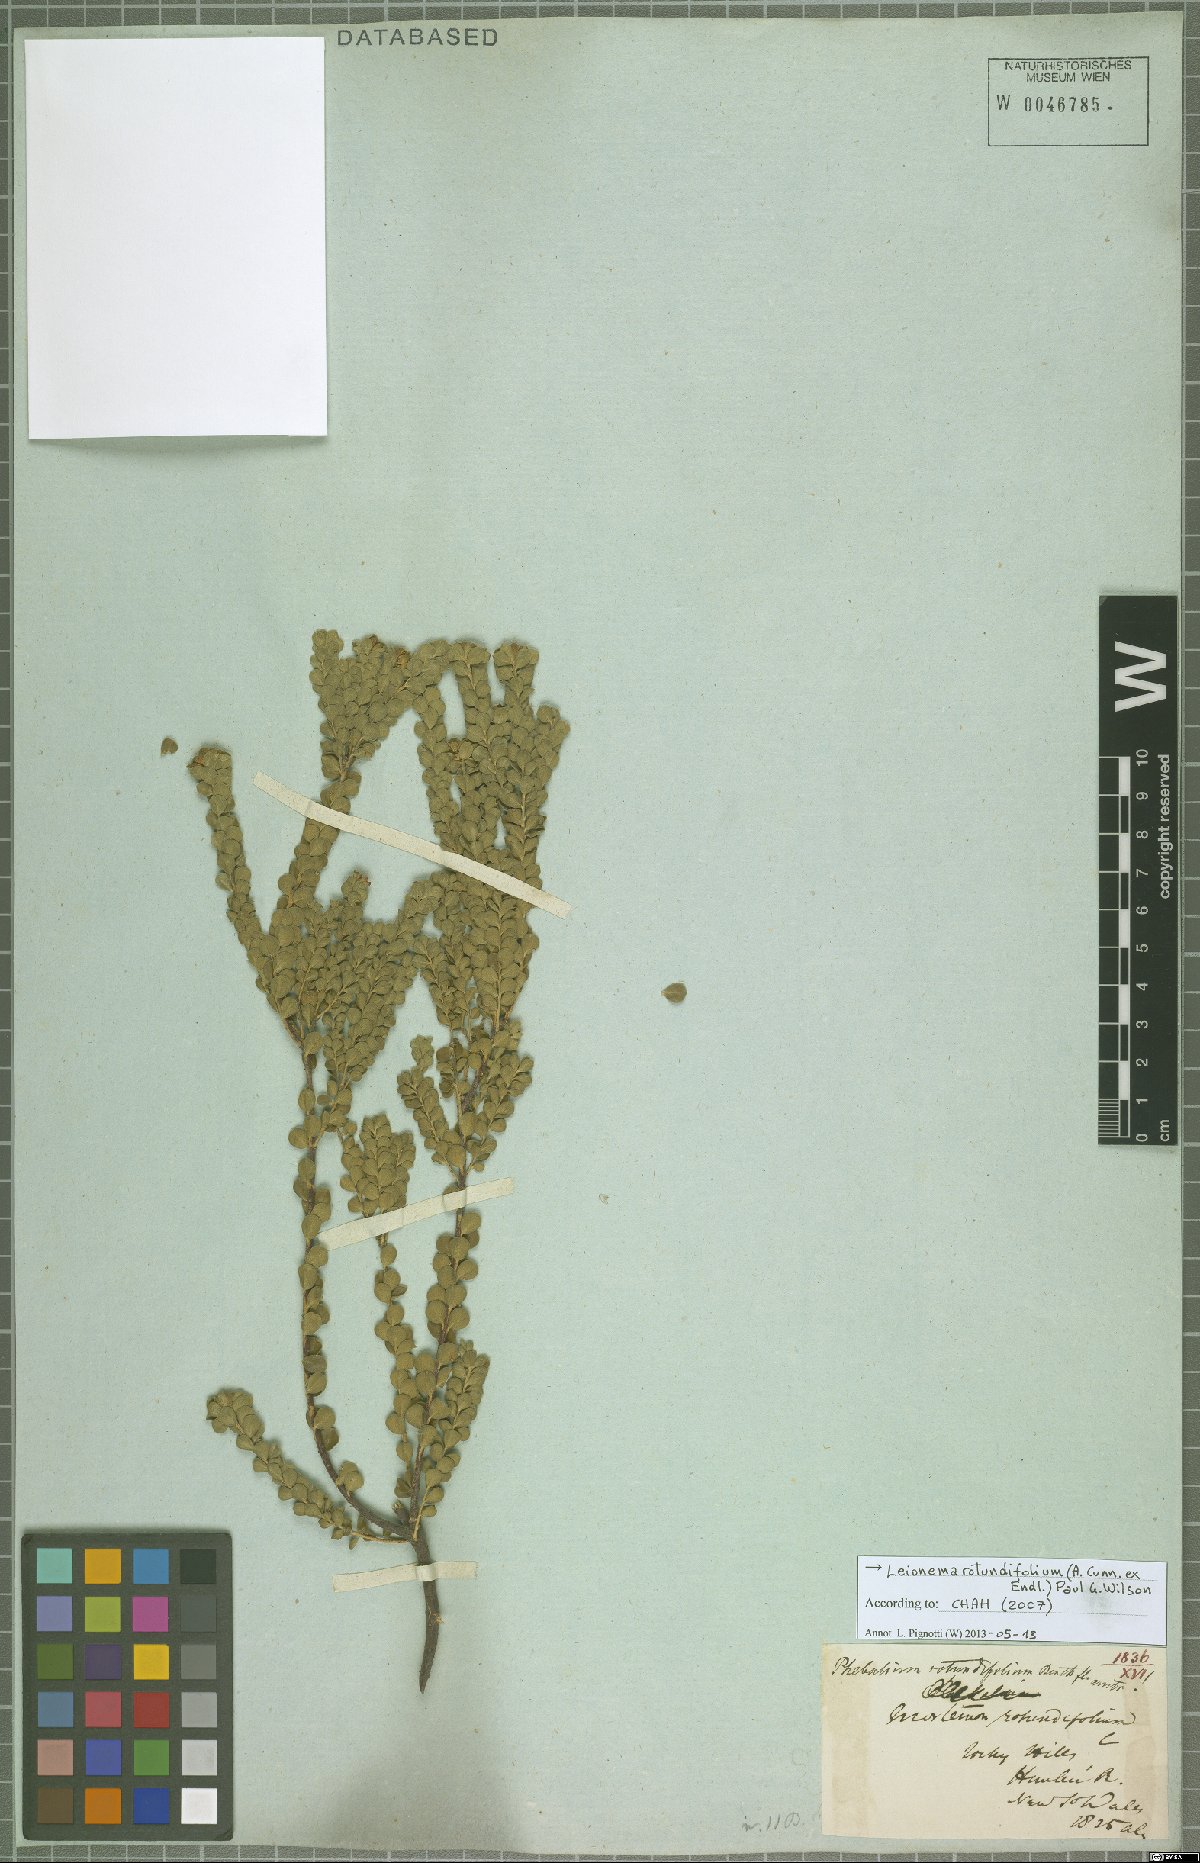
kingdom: Plantae
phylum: Tracheophyta
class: Magnoliopsida
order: Sapindales
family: Rutaceae
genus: Leionema
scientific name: Leionema rotundifolium
